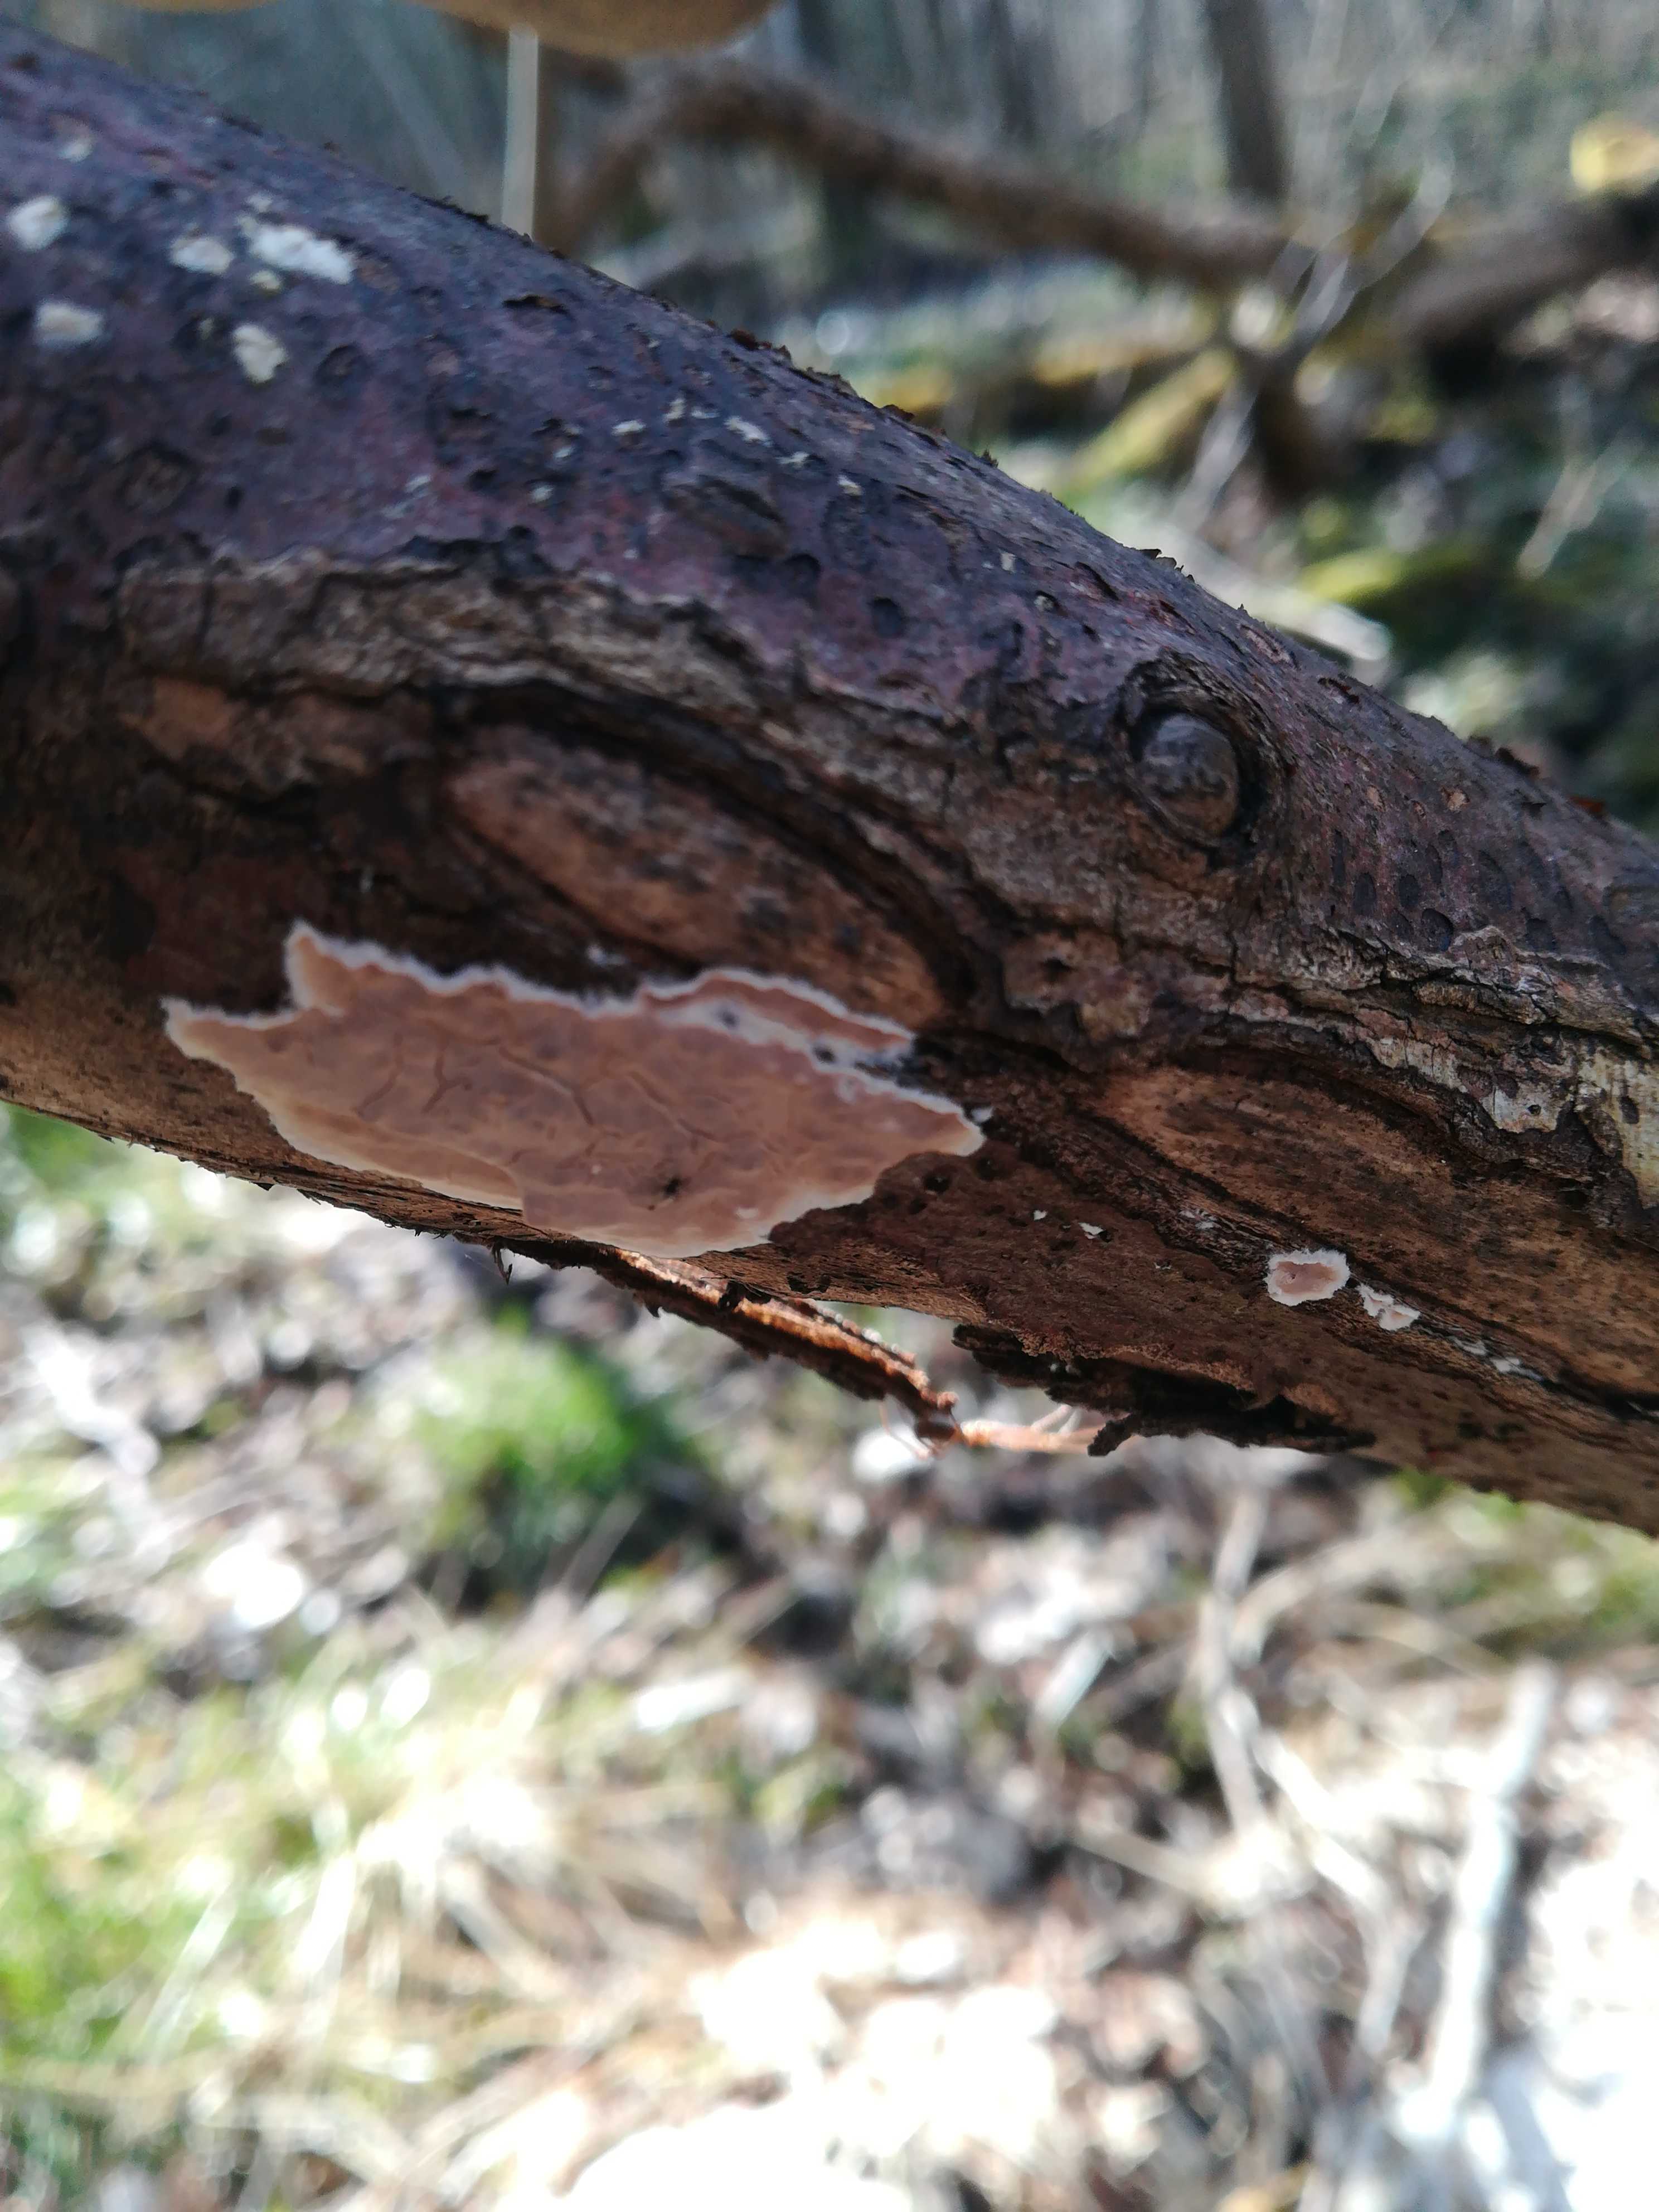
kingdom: Fungi
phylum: Basidiomycota
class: Agaricomycetes
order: Agaricales
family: Physalacriaceae
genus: Cylindrobasidium
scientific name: Cylindrobasidium evolvens
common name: sprækkehinde
